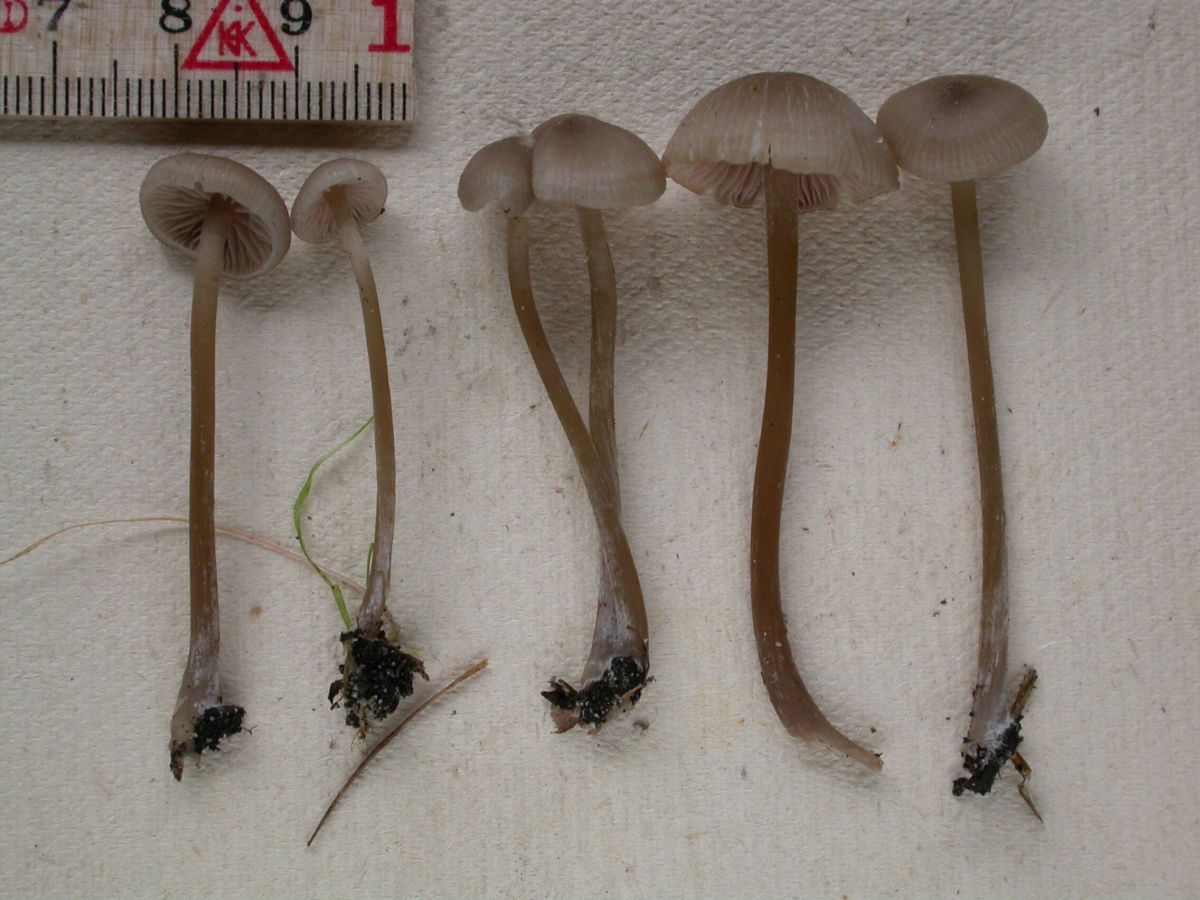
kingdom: Fungi
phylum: Basidiomycota
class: Agaricomycetes
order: Agaricales
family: Entolomataceae
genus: Entoloma
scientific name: Entoloma favrei
